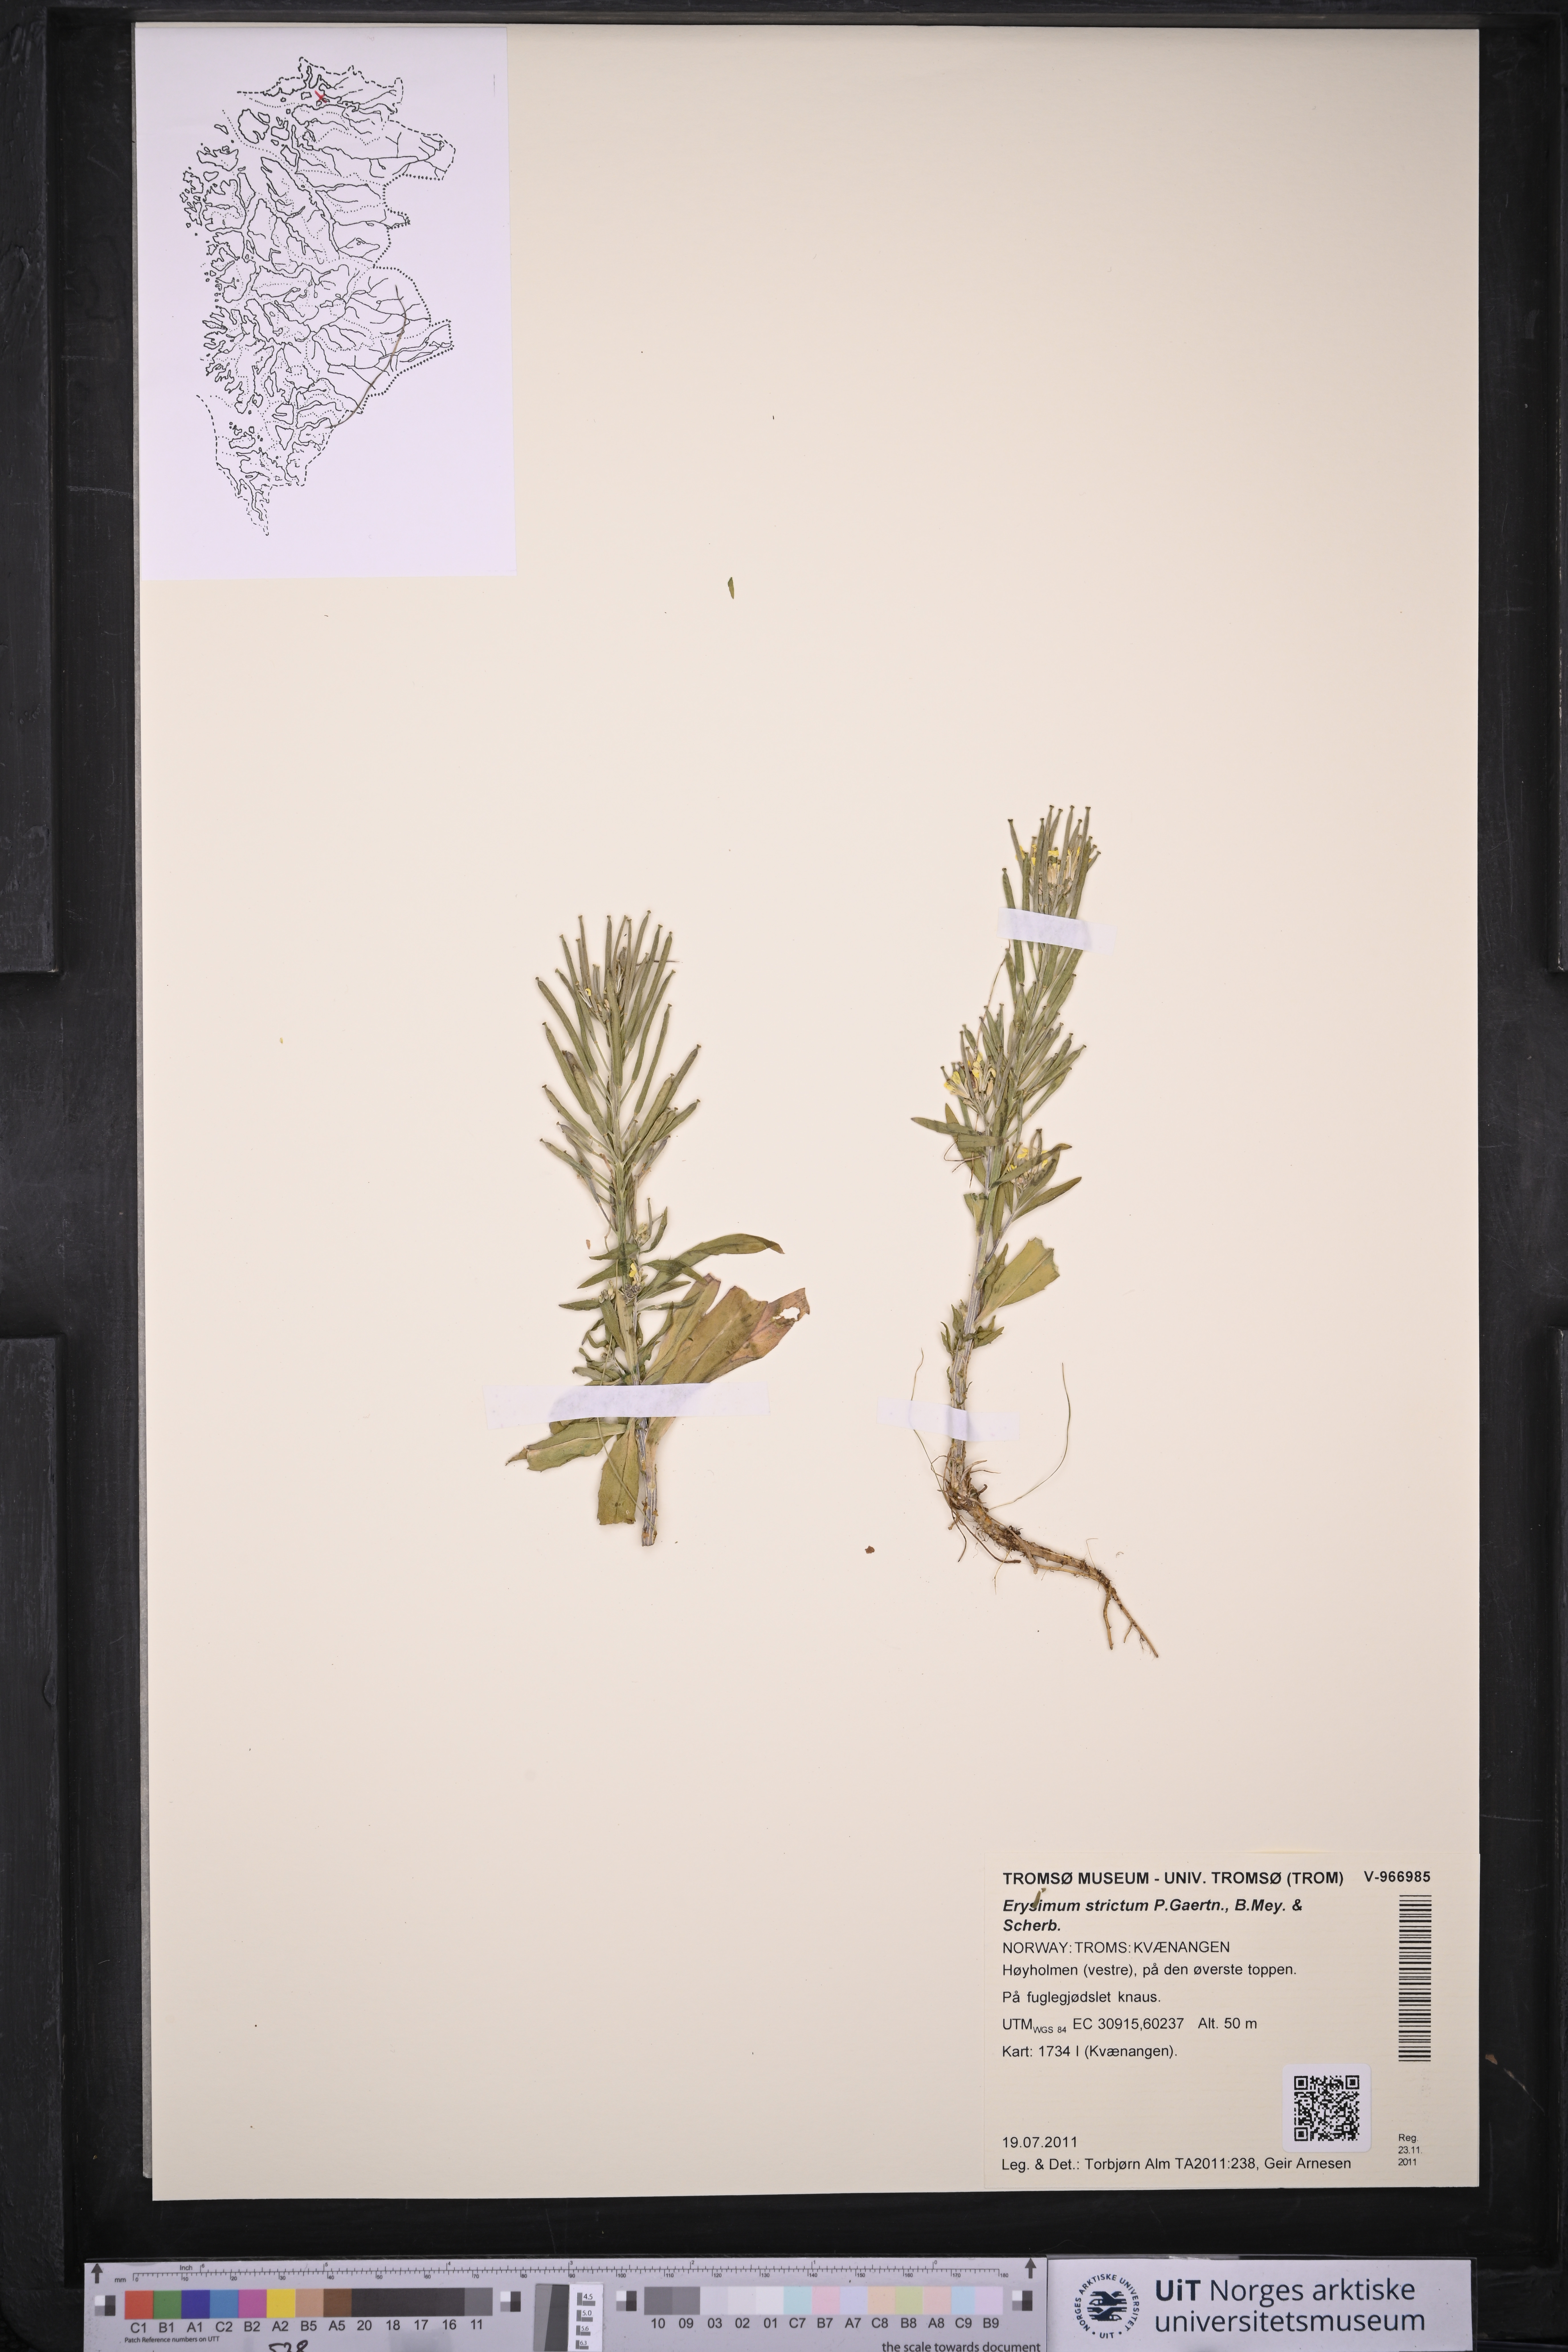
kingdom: Plantae
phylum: Tracheophyta
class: Magnoliopsida
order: Brassicales
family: Brassicaceae
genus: Erysimum
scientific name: Erysimum virgatum
